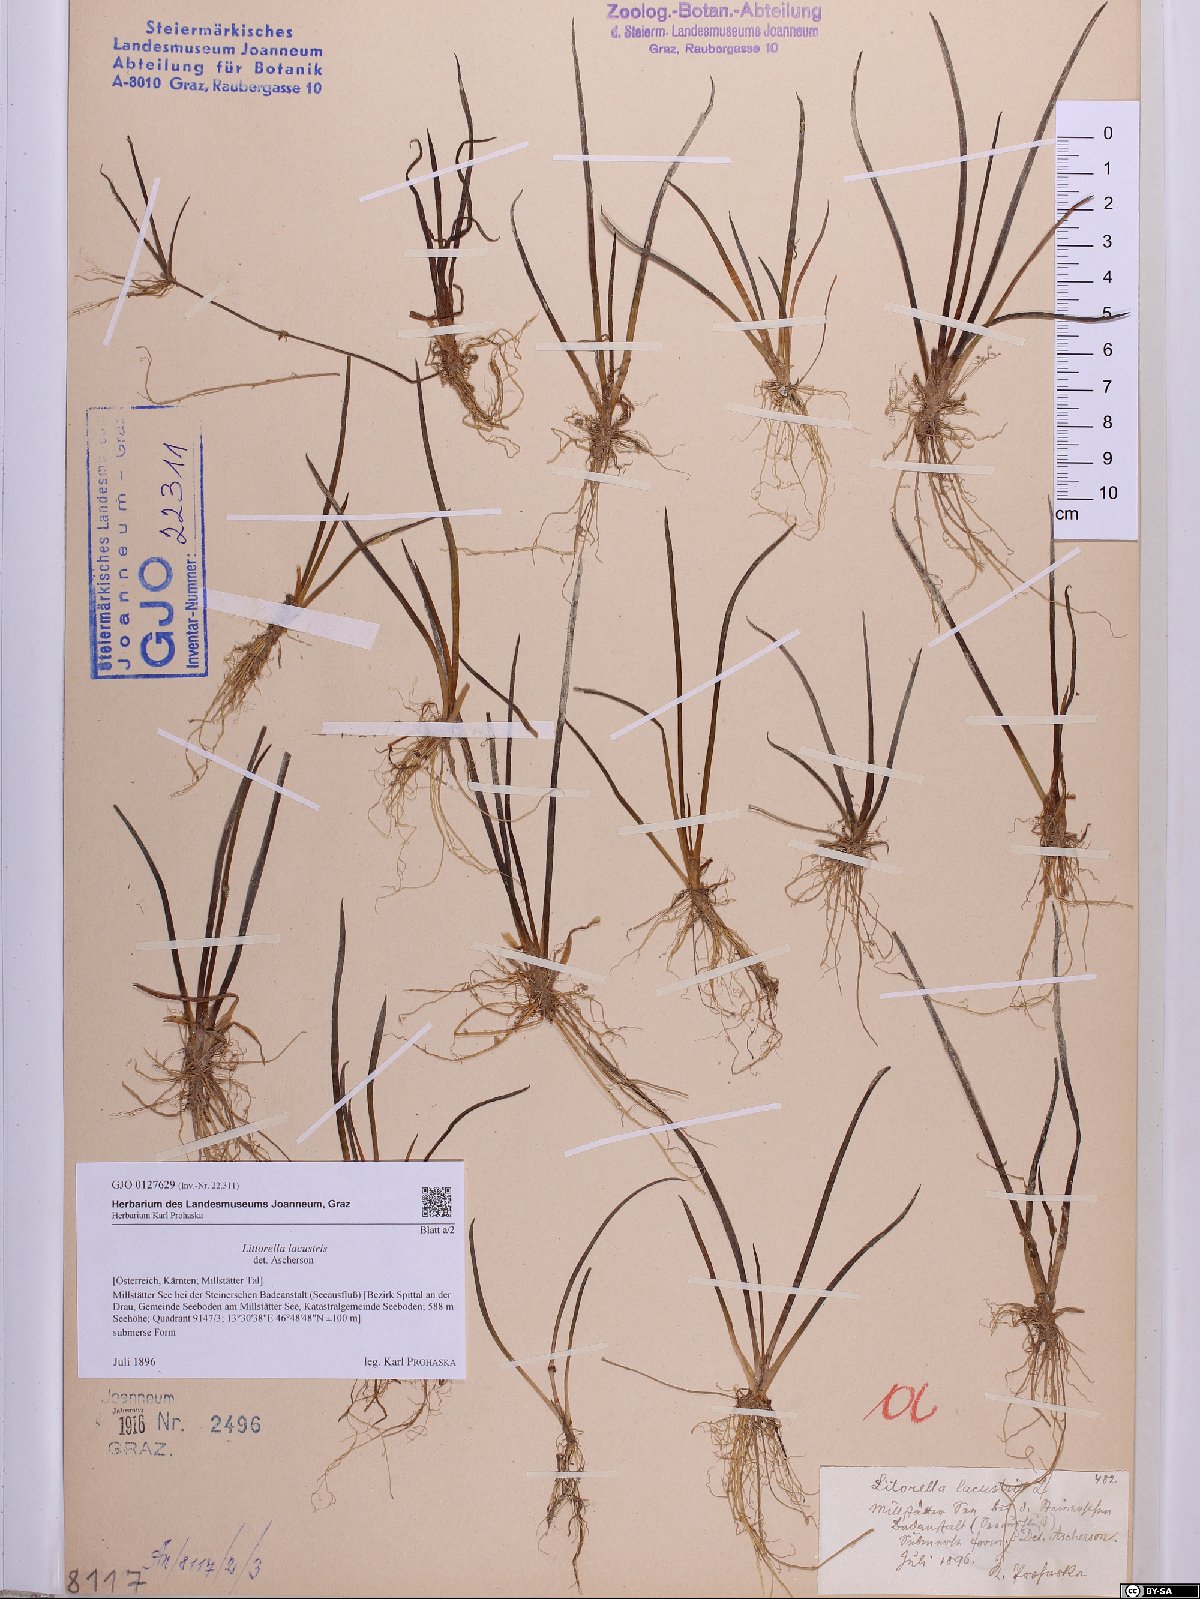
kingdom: Plantae
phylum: Tracheophyta
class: Magnoliopsida
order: Lamiales
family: Plantaginaceae
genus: Littorella
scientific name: Littorella uniflora
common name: Shoreweed
